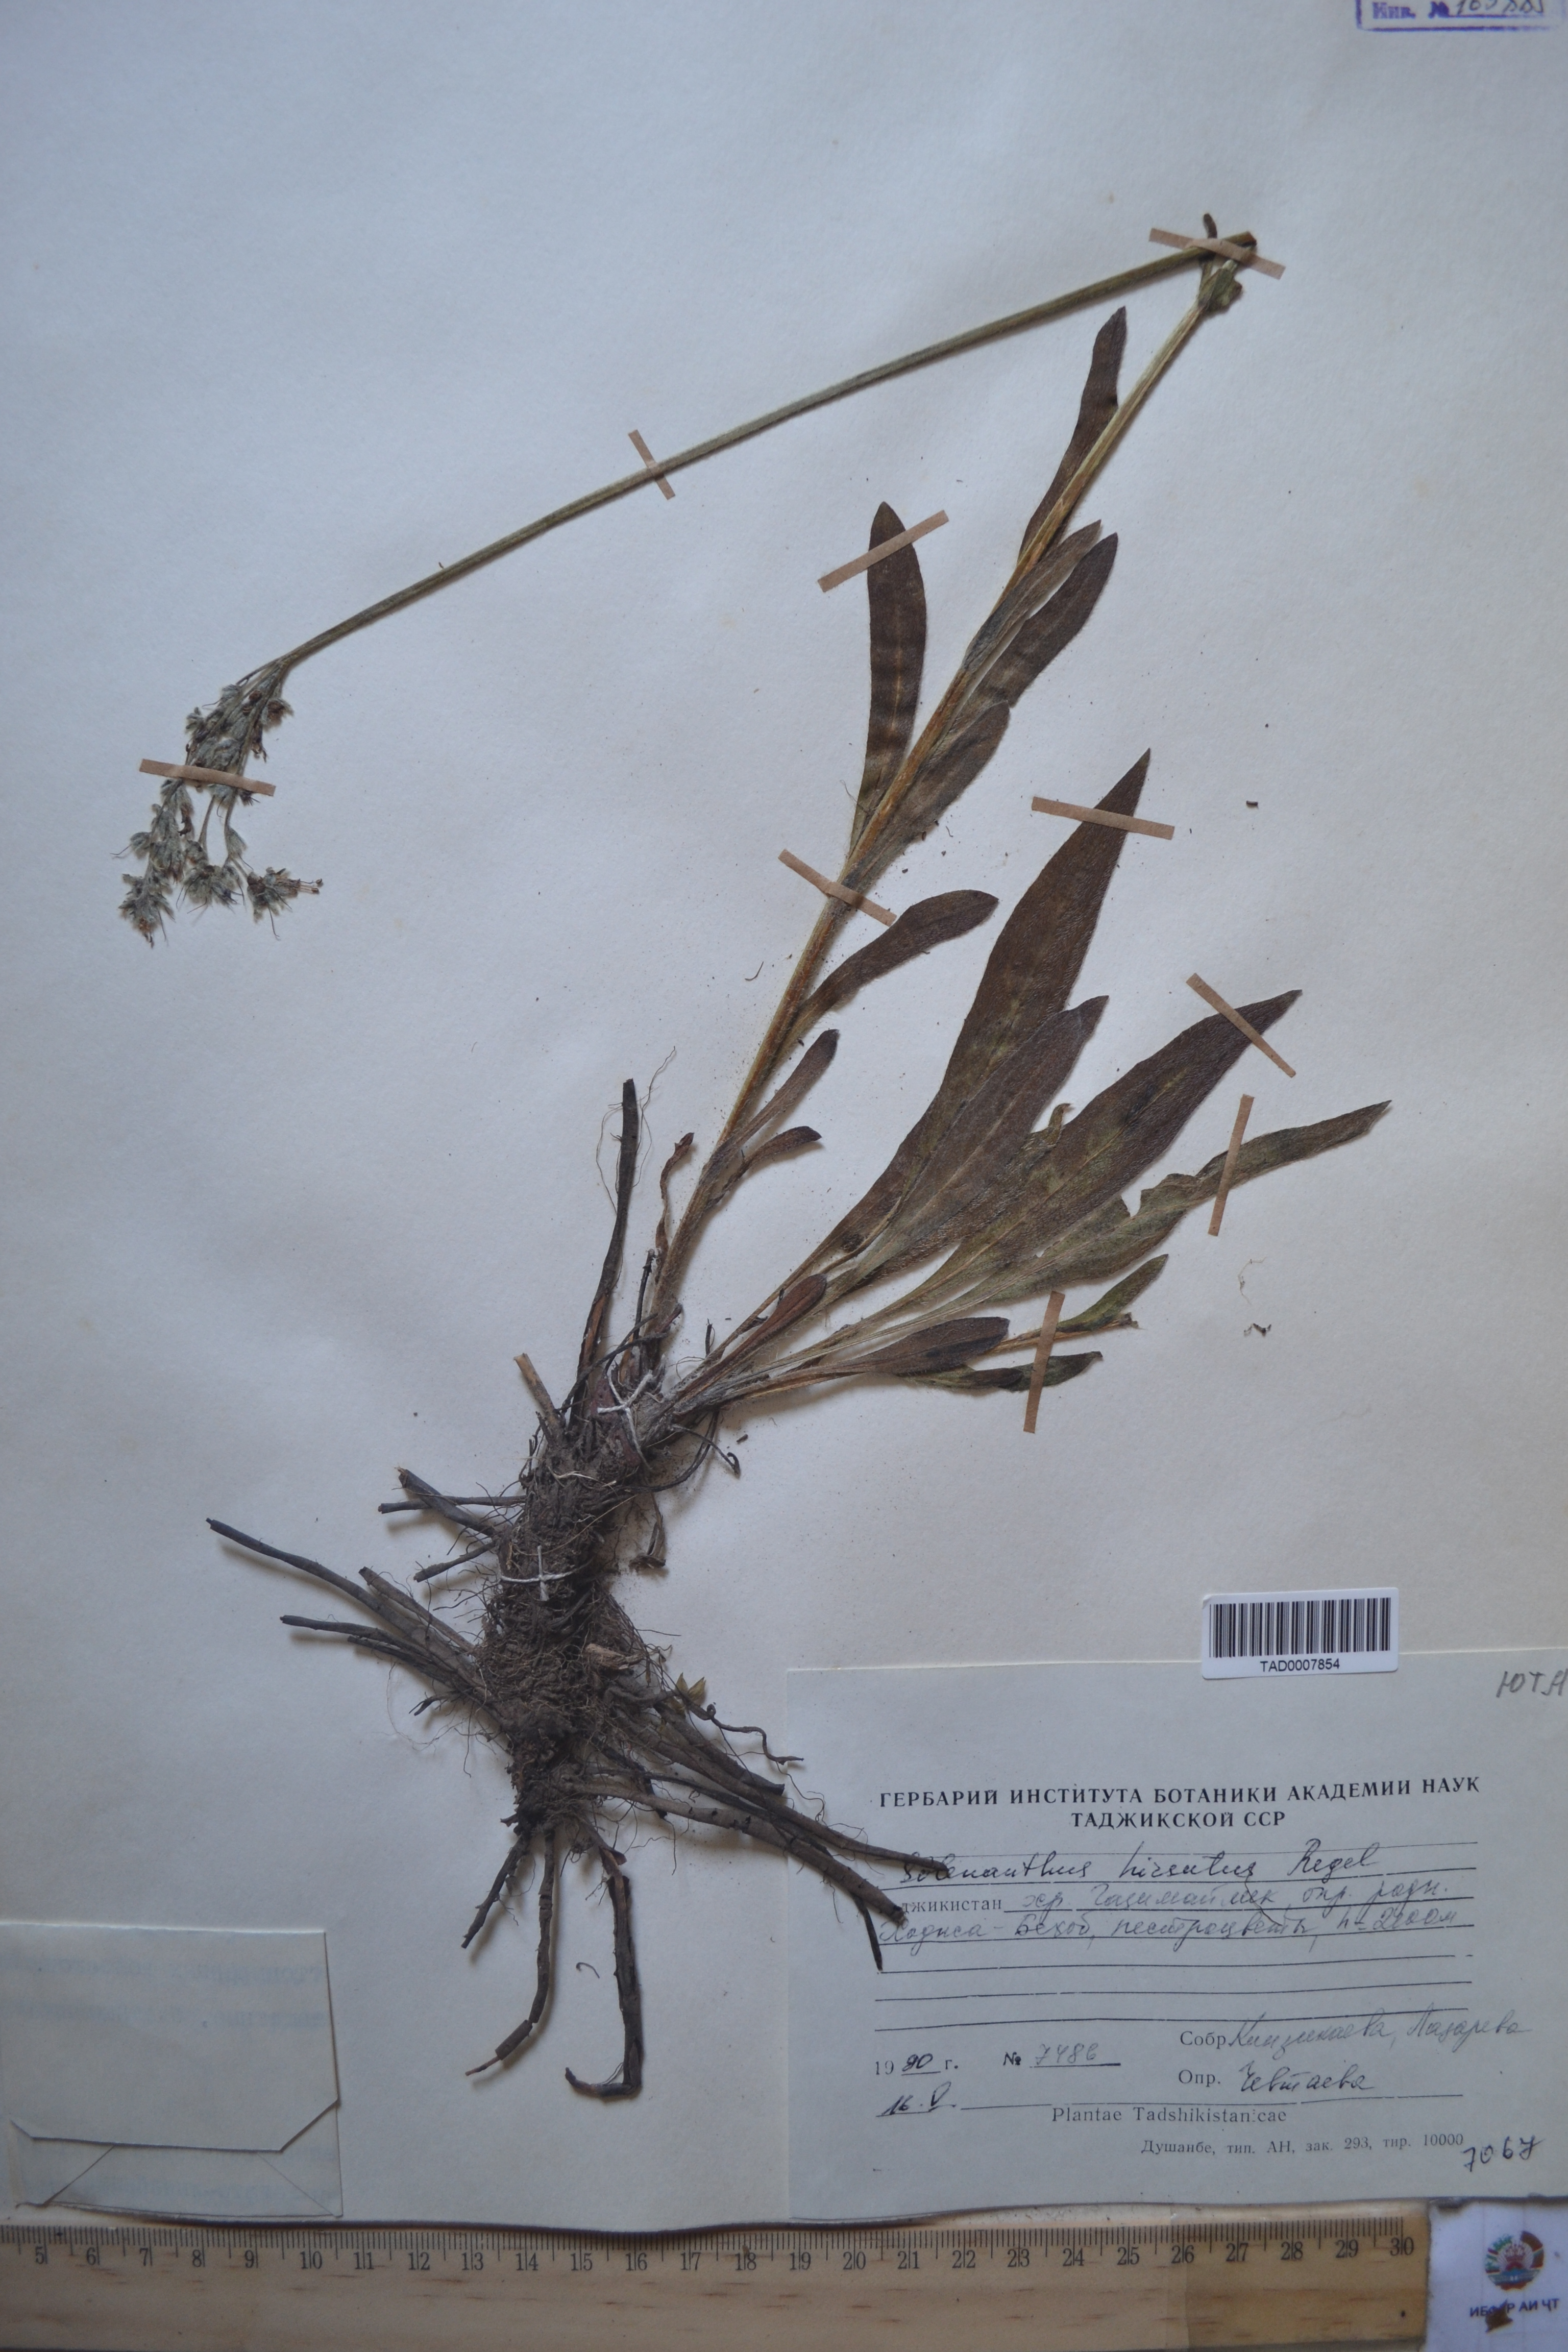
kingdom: Plantae
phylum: Tracheophyta
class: Magnoliopsida
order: Boraginales
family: Boraginaceae
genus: Solenanthus
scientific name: Solenanthus hirsutus
